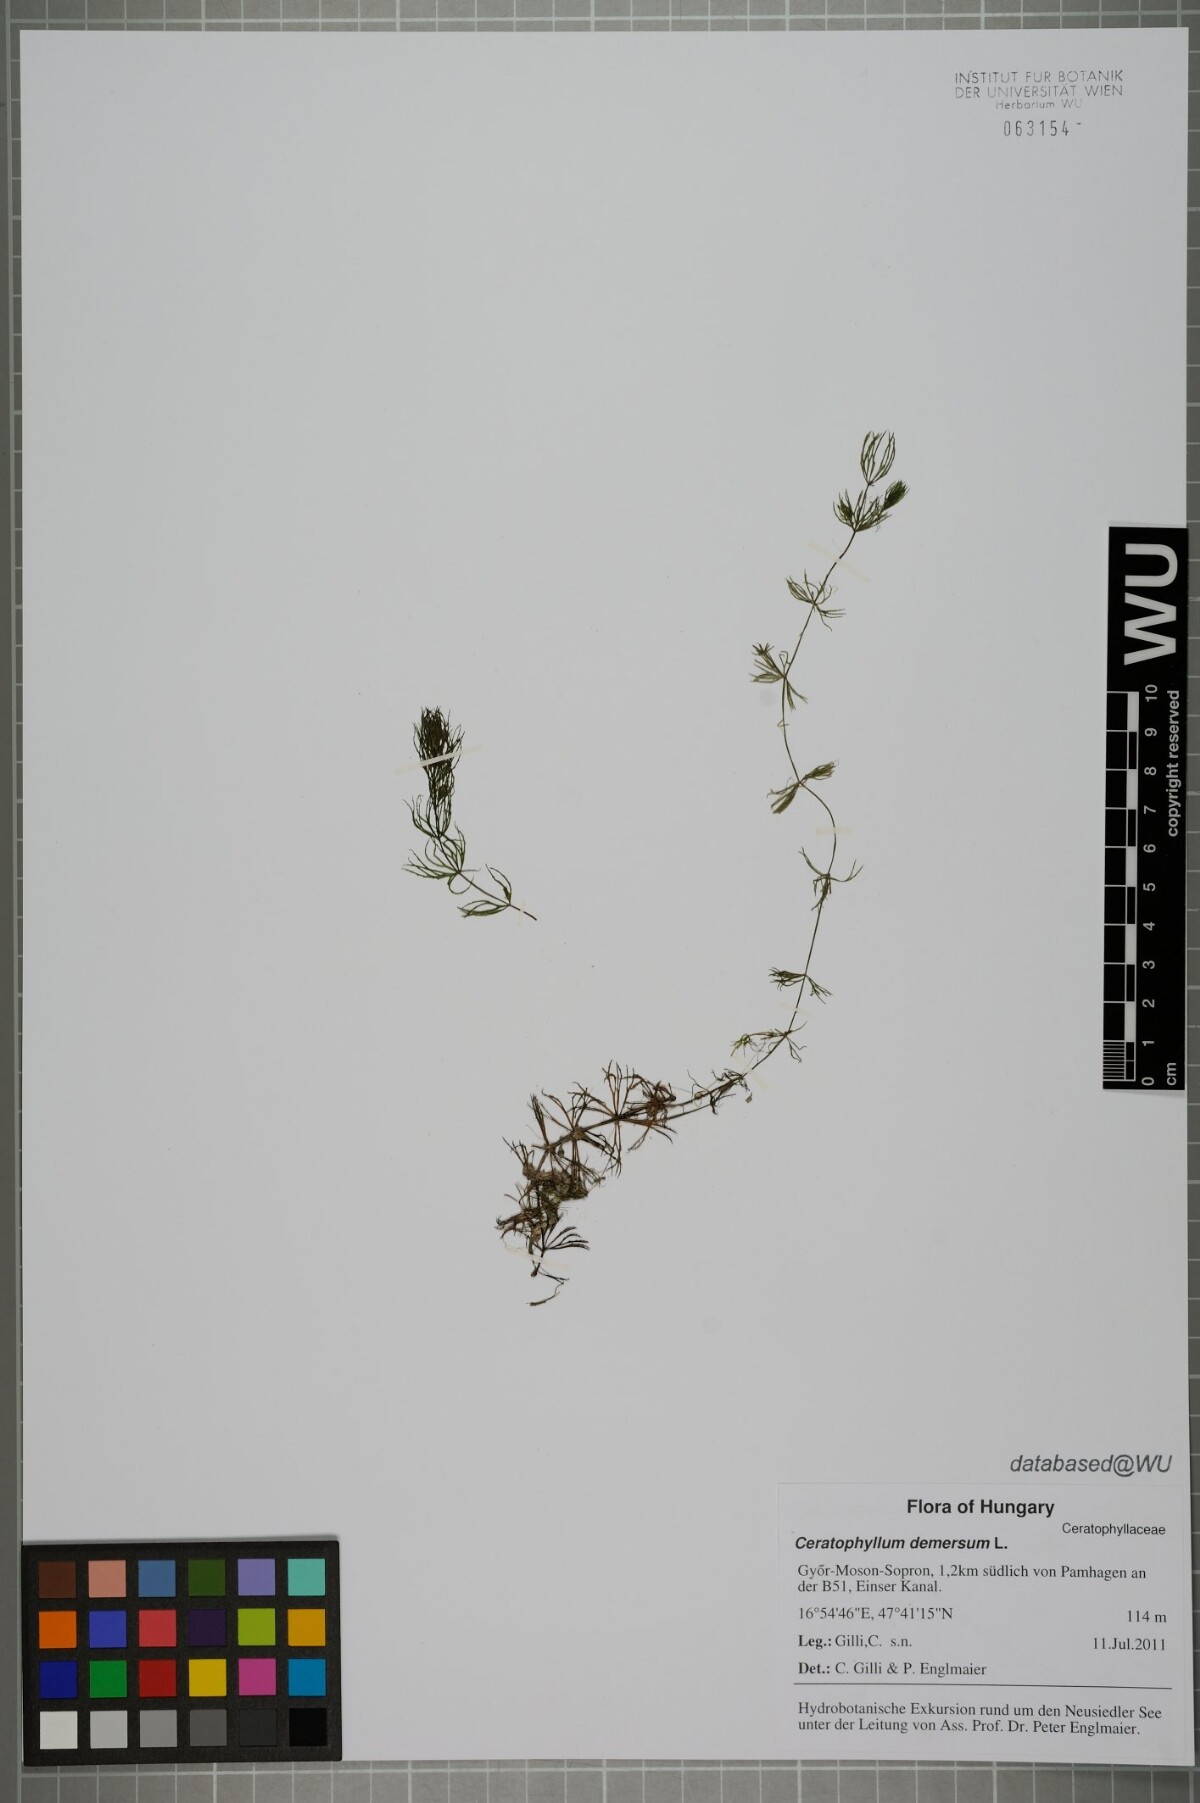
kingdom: Plantae
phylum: Tracheophyta
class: Magnoliopsida
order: Ceratophyllales
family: Ceratophyllaceae
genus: Ceratophyllum
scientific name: Ceratophyllum demersum
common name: Rigid hornwort
